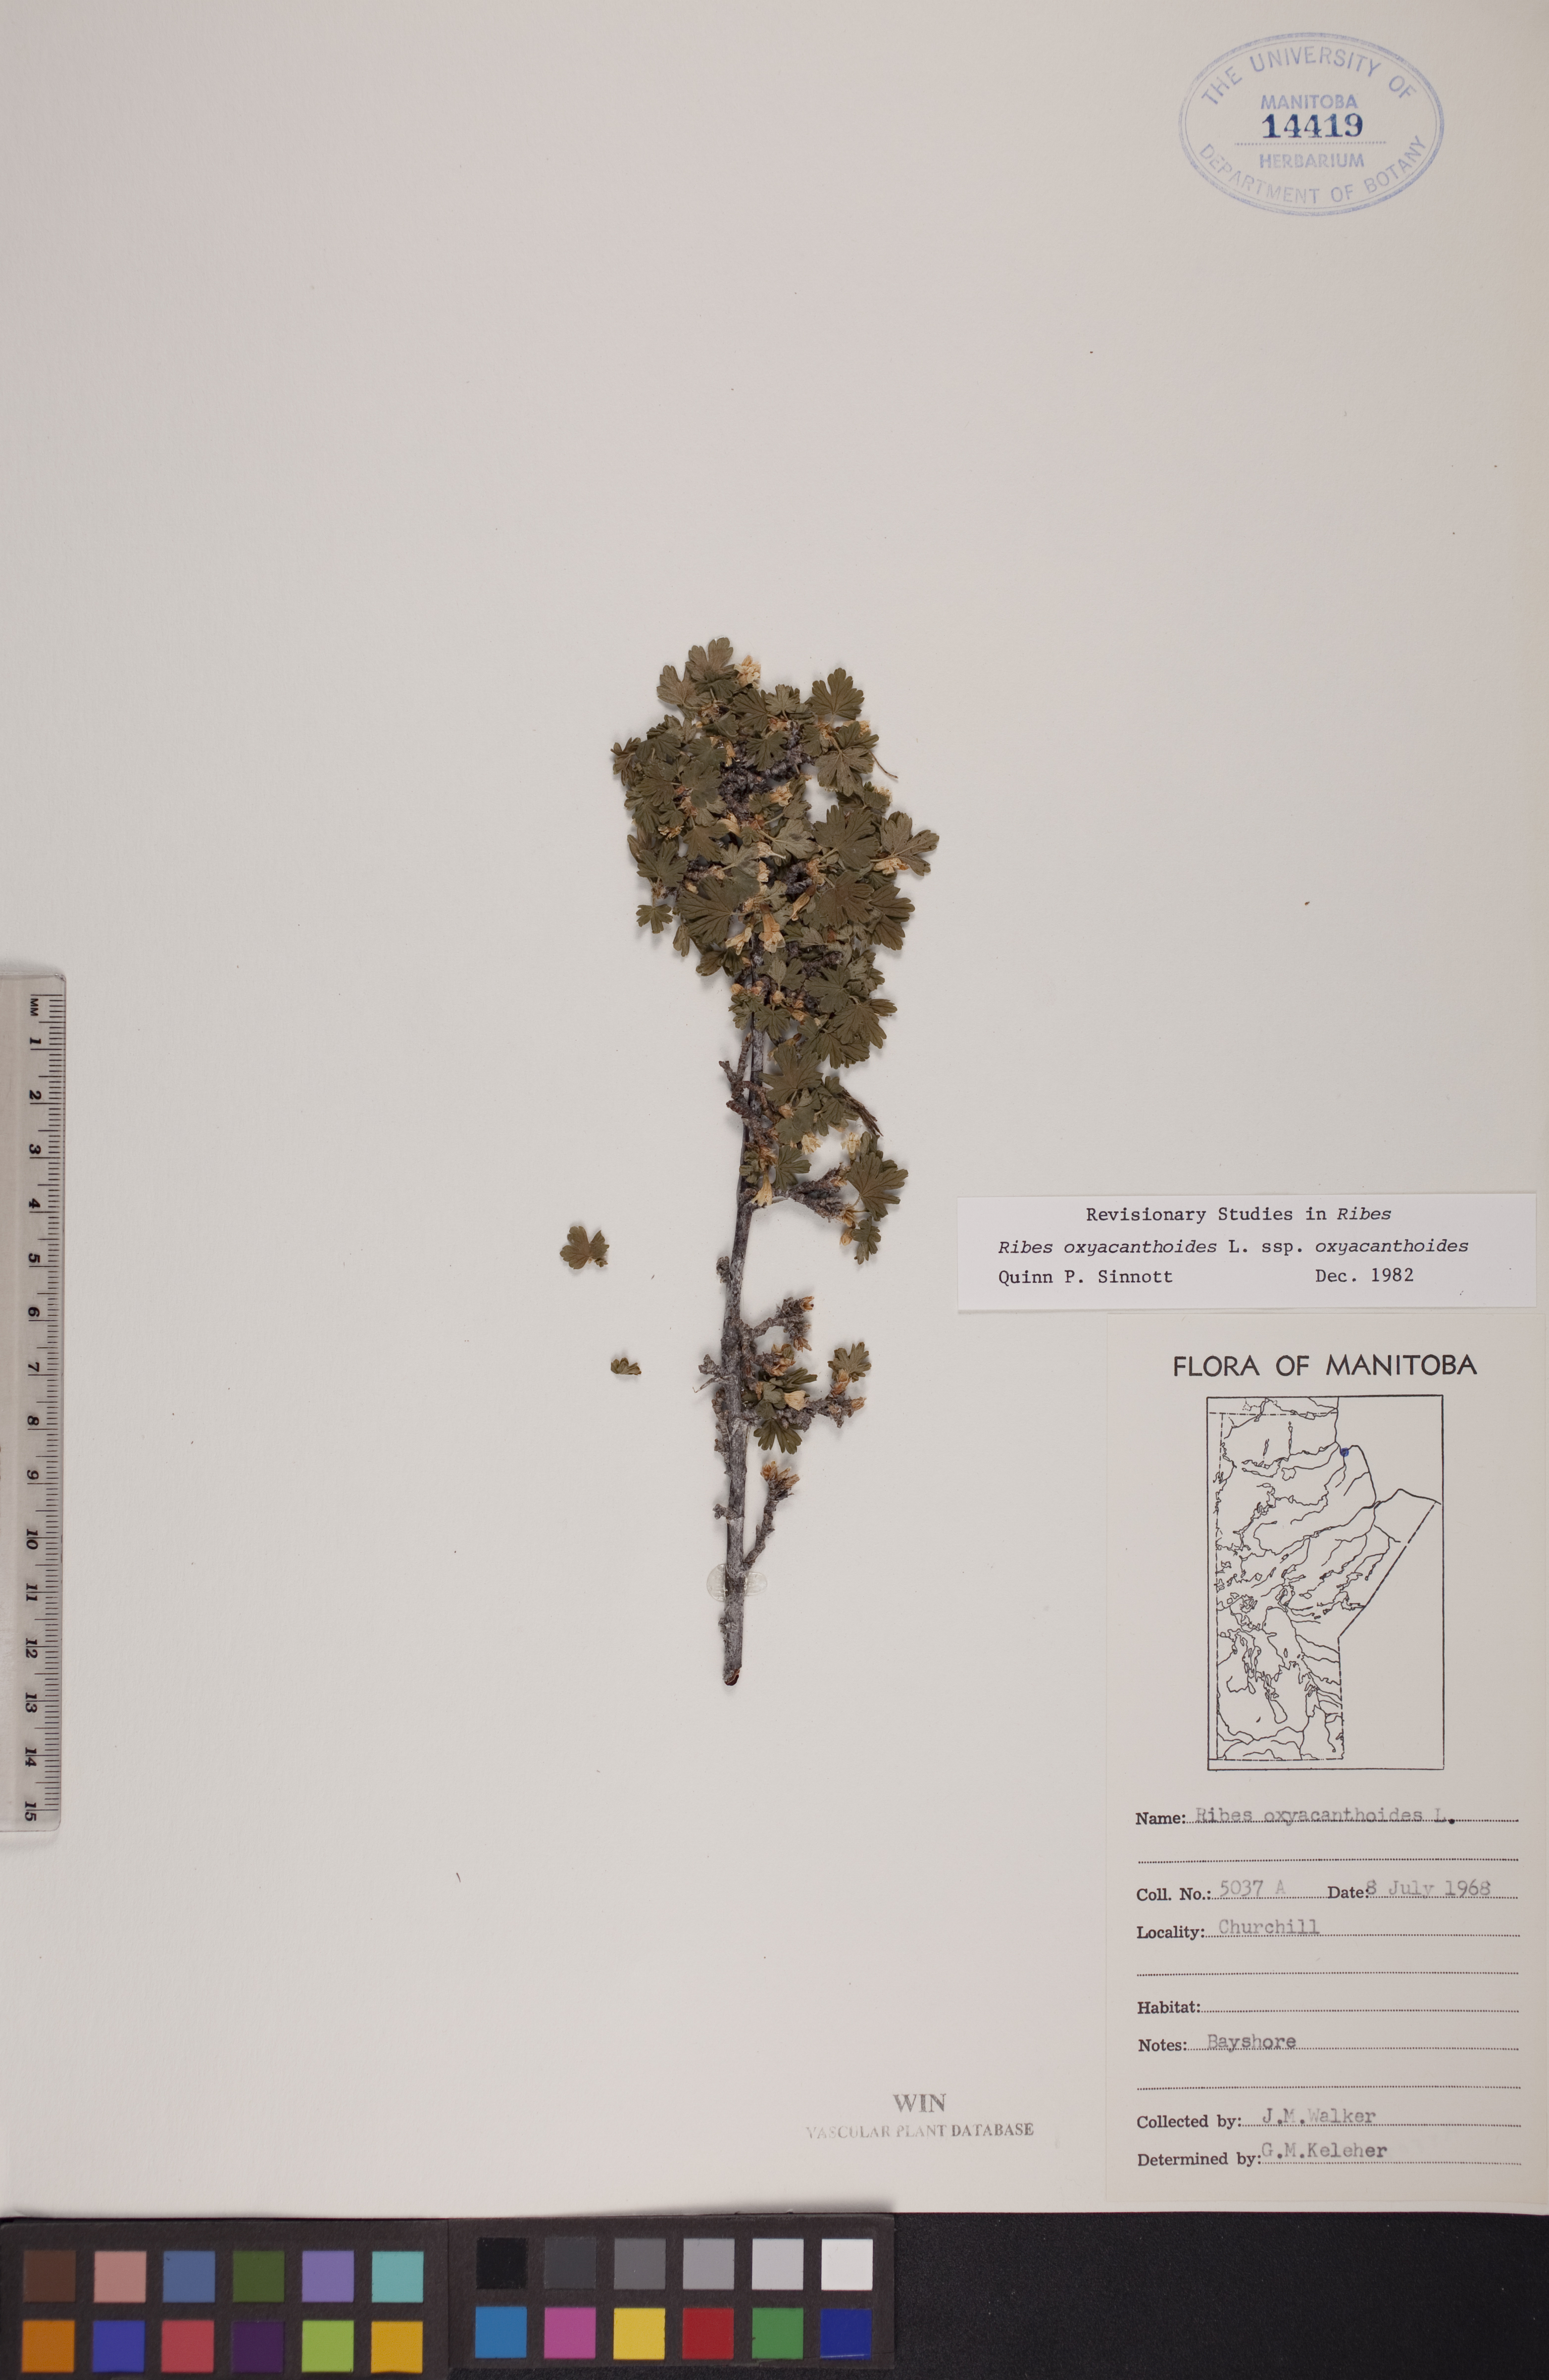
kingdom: Plantae
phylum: Tracheophyta
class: Magnoliopsida
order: Saxifragales
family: Grossulariaceae
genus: Ribes
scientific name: Ribes oxyacanthoides
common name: Northern gooseberry
